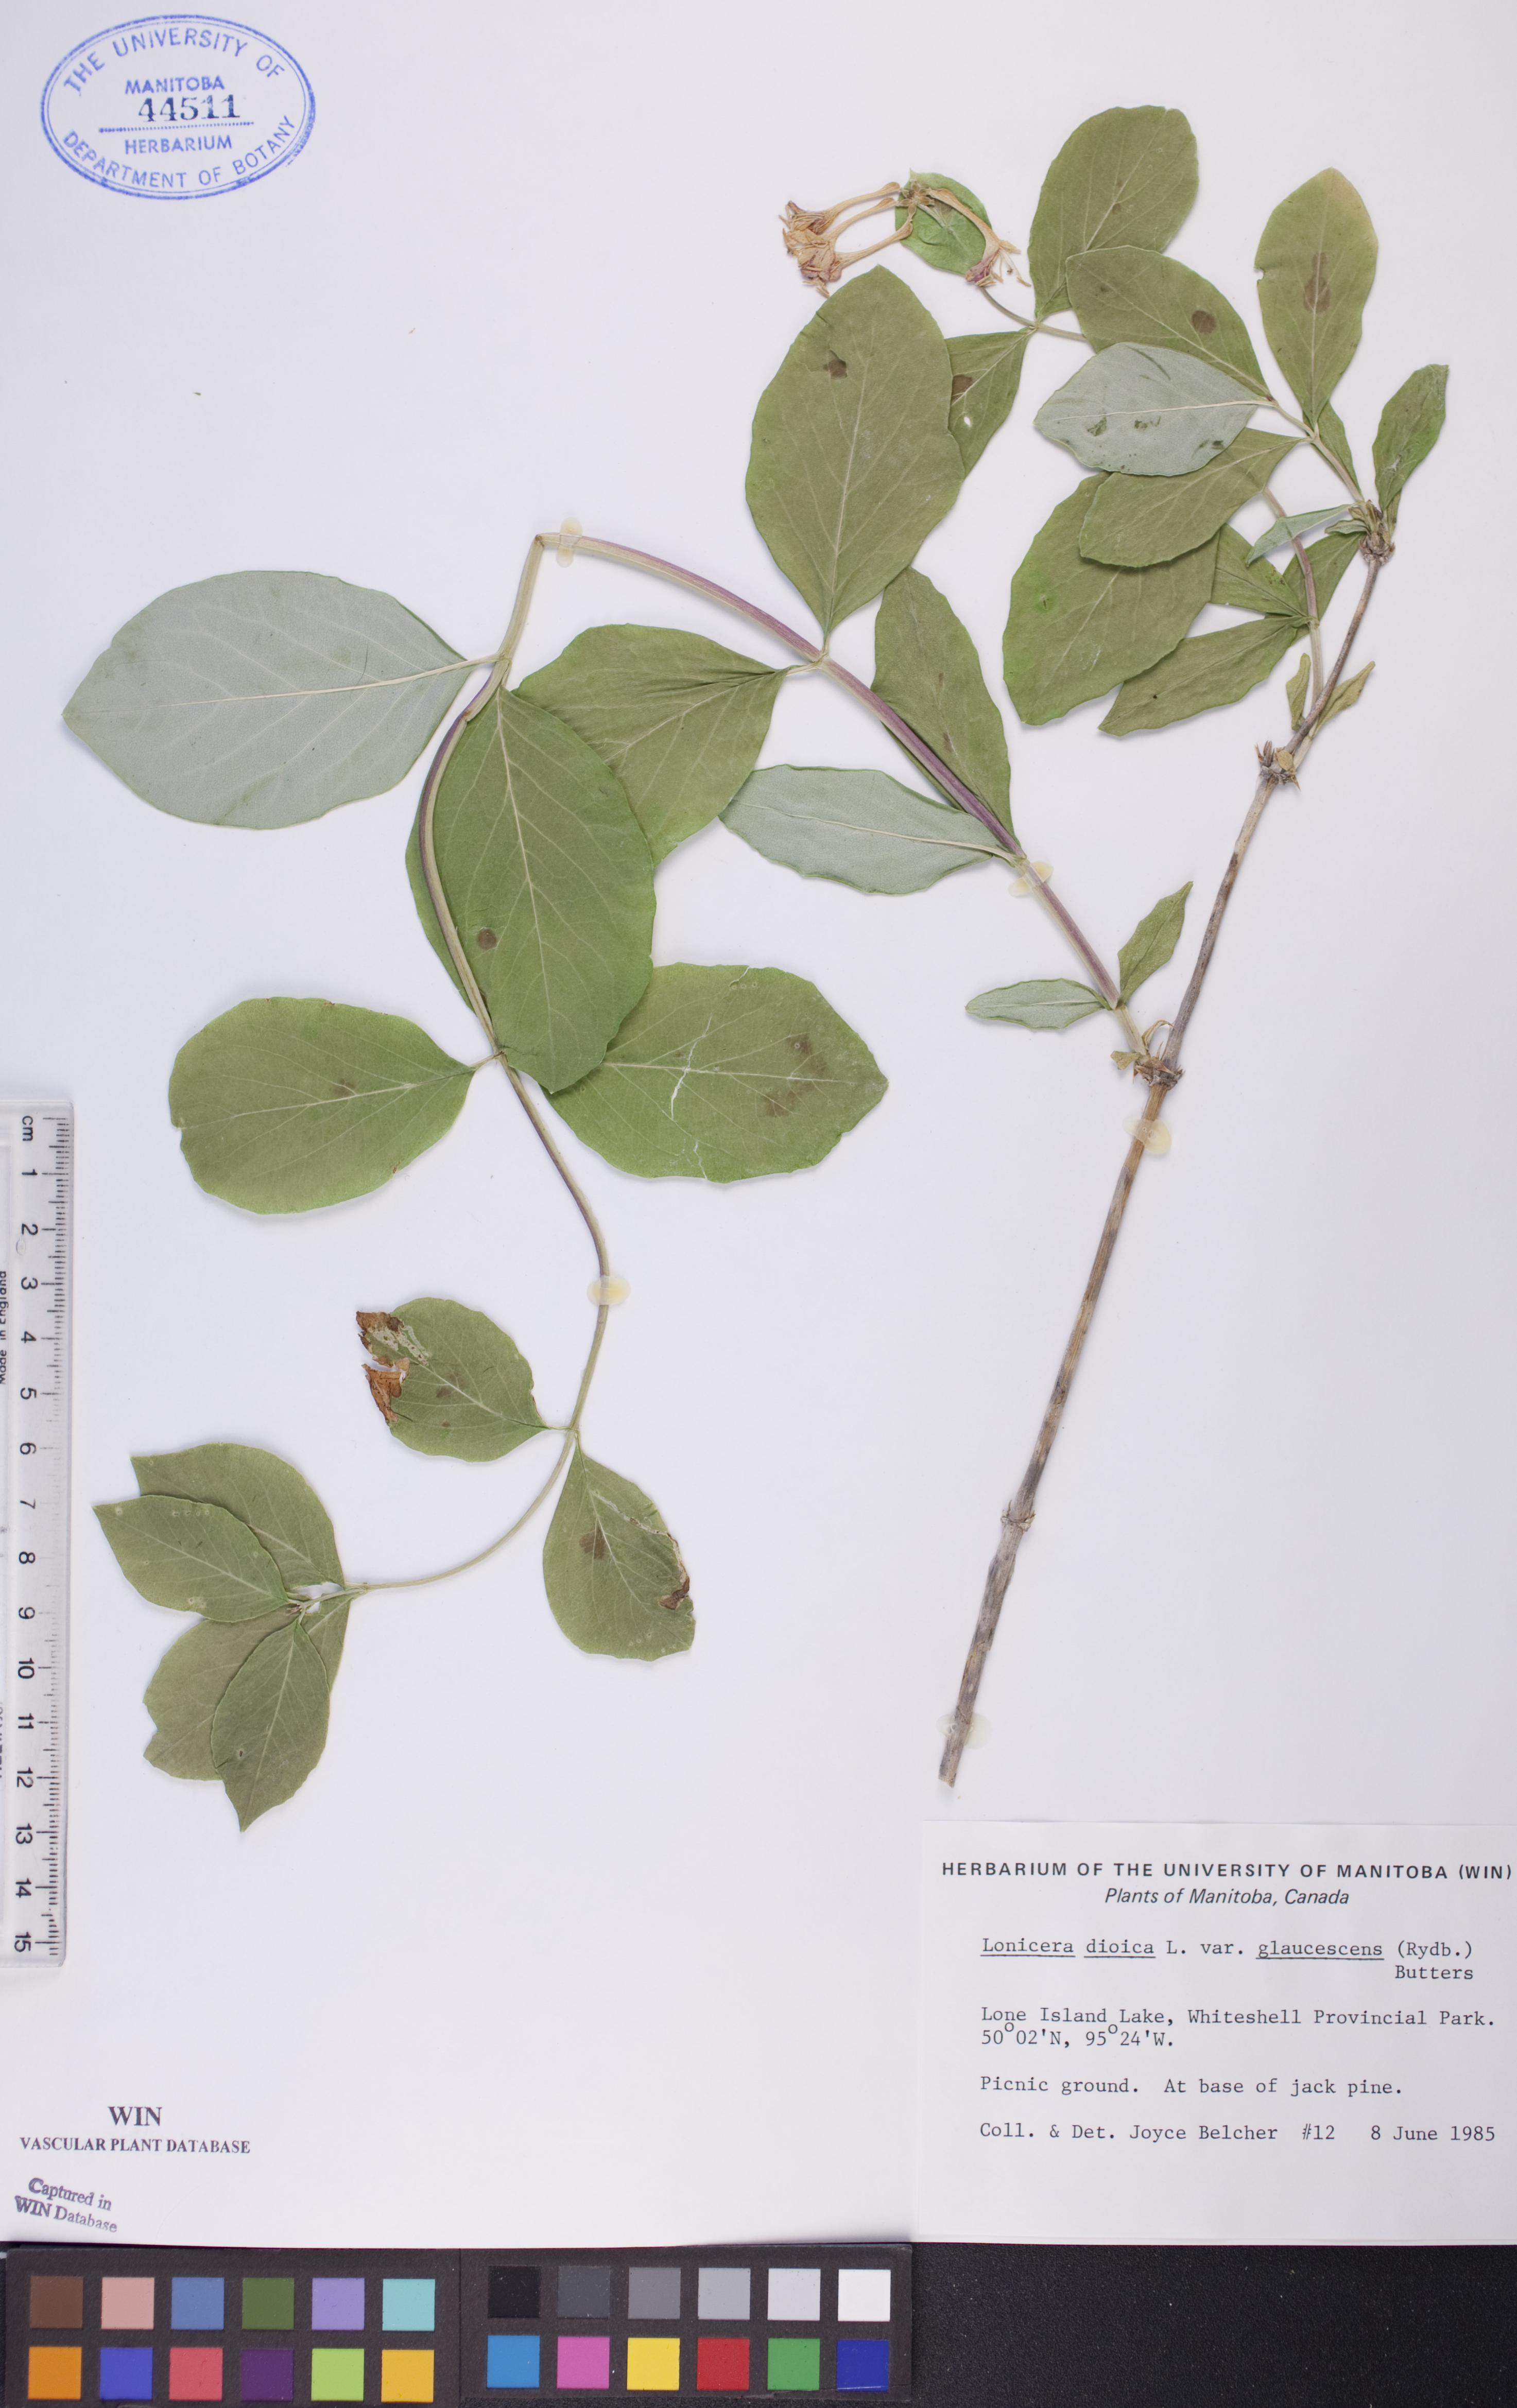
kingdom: Plantae
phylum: Tracheophyta
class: Magnoliopsida
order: Dipsacales
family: Caprifoliaceae
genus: Lonicera
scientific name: Lonicera dioica
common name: Limber honeysuckle
